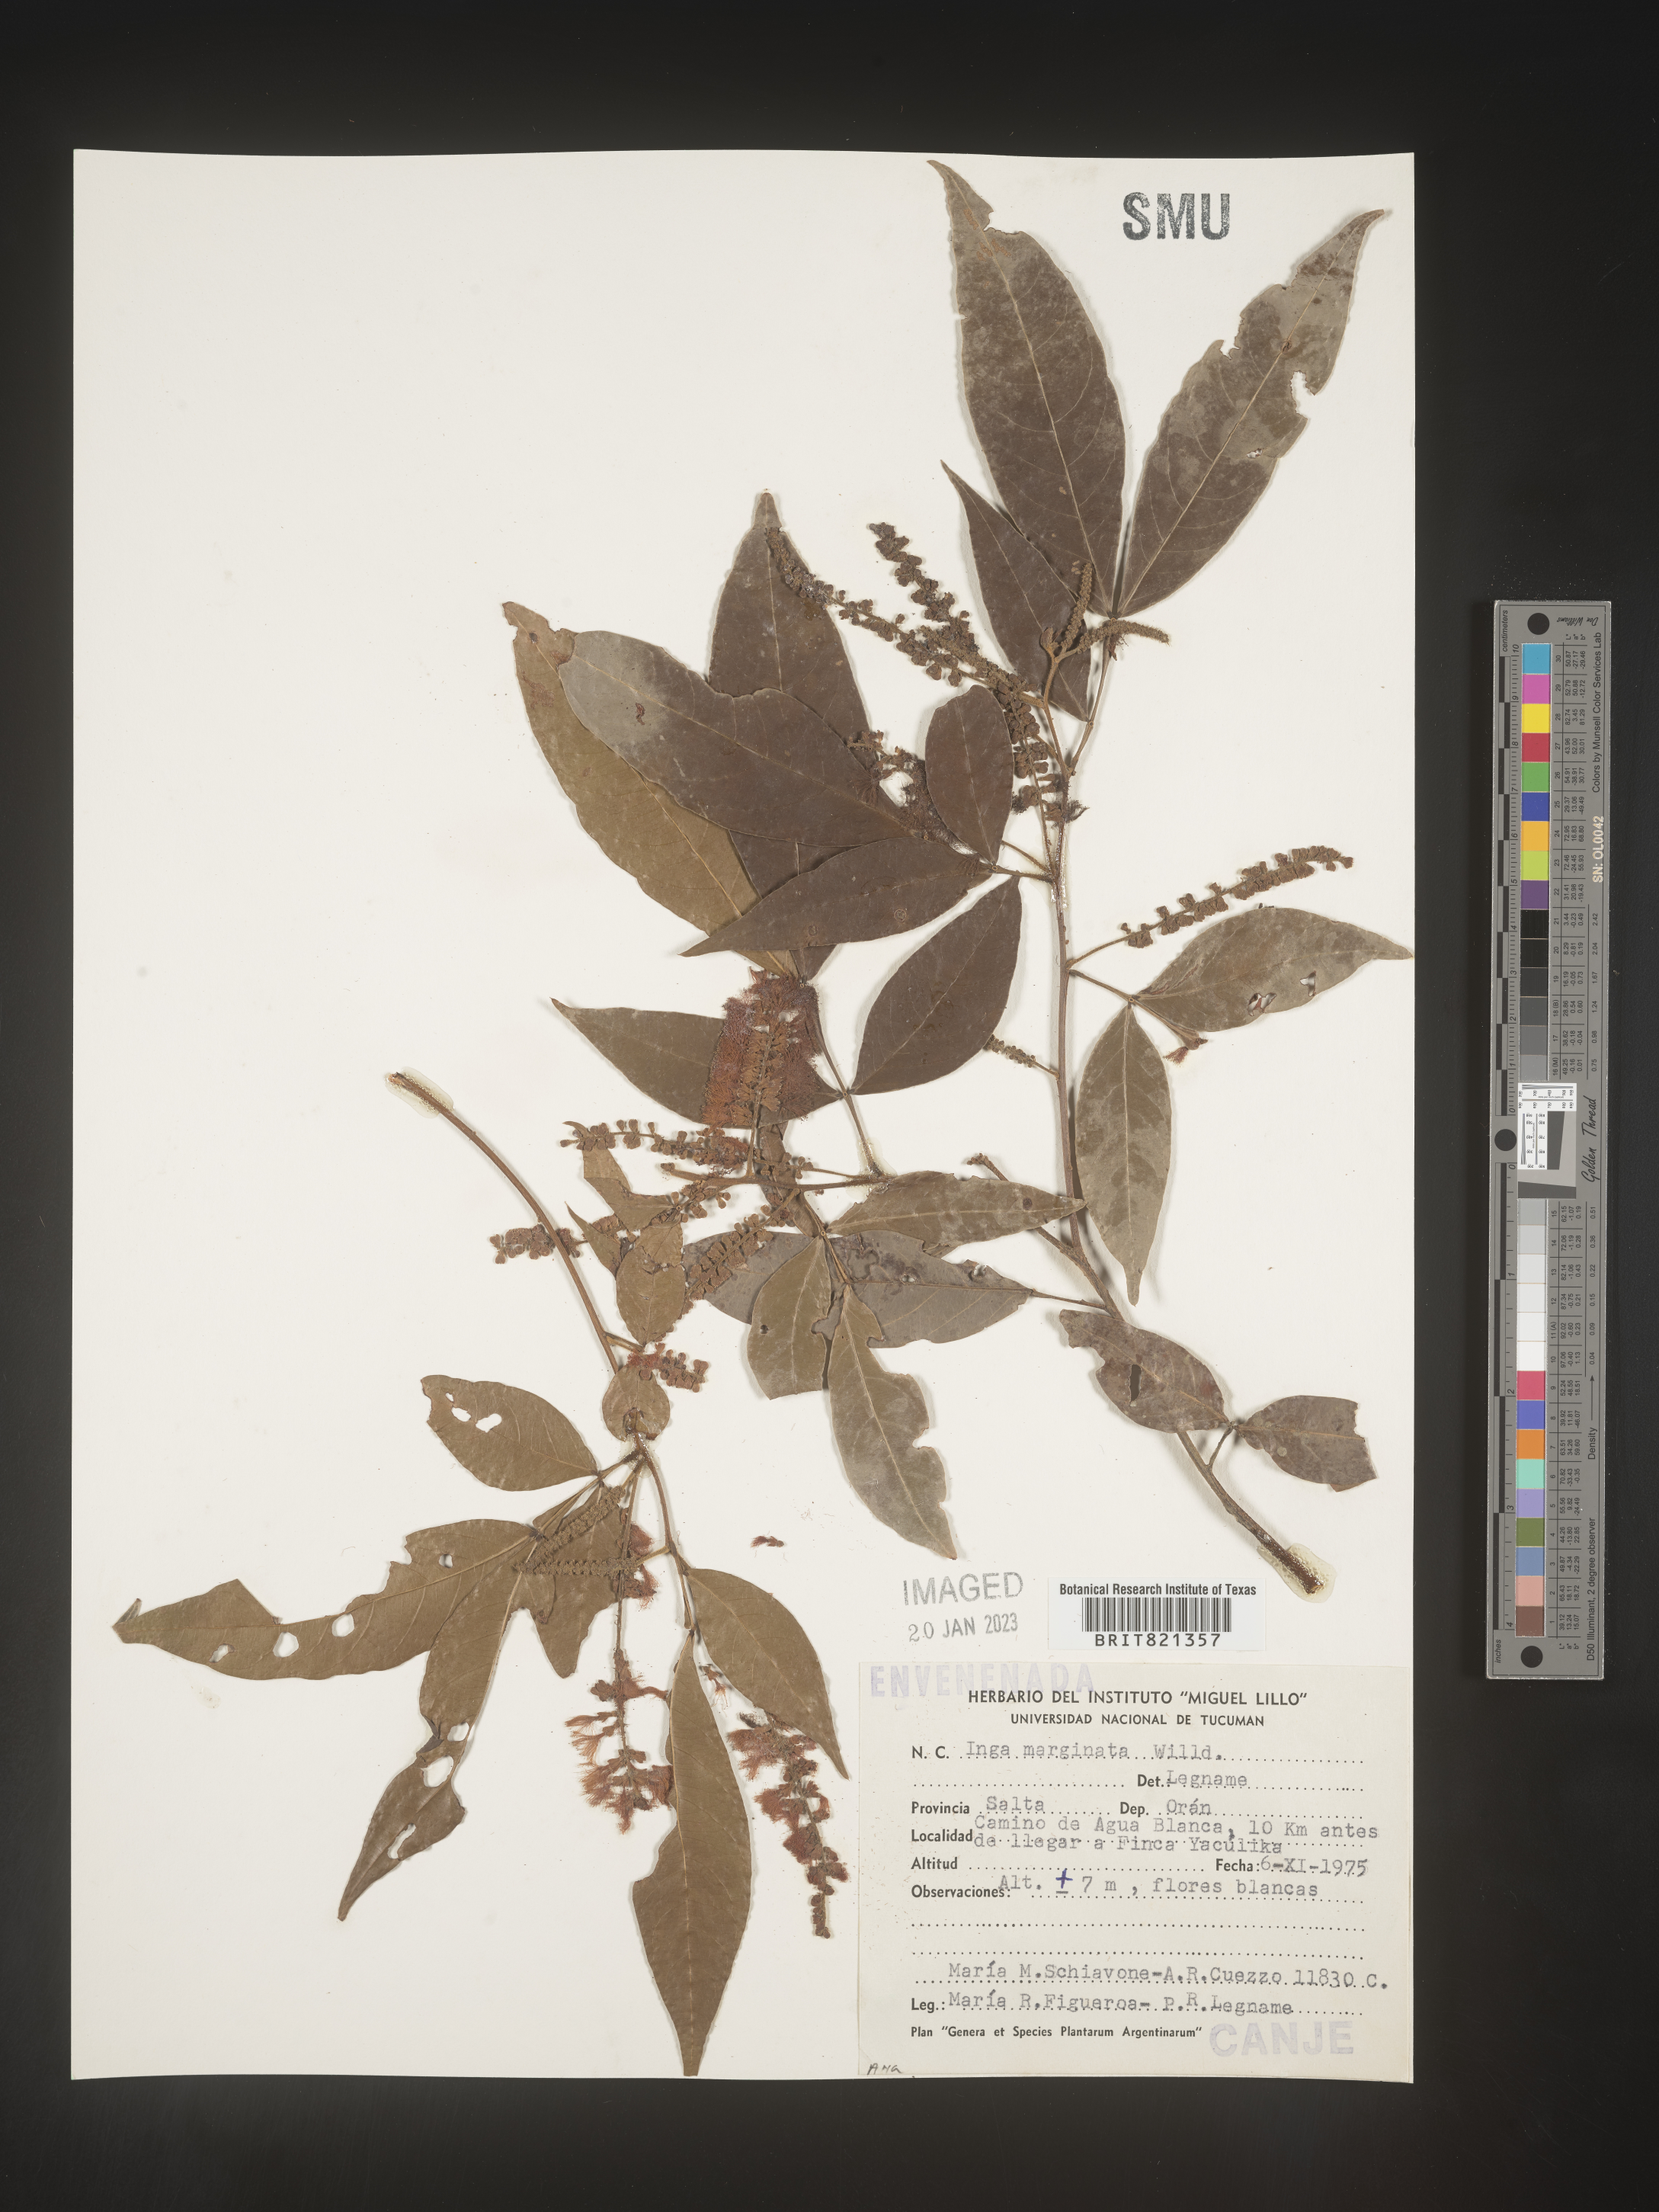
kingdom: Plantae
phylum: Tracheophyta
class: Magnoliopsida
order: Fabales
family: Fabaceae
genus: Inga
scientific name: Inga
